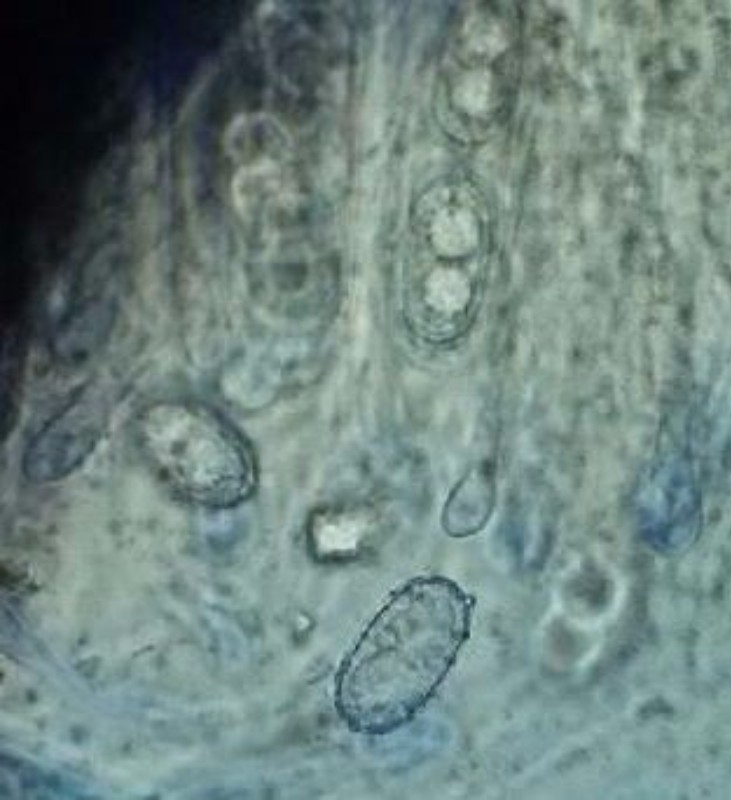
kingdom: Fungi
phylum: Ascomycota
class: Pezizomycetes
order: Pezizales
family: Pyronemataceae
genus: Humaria
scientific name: Humaria hemisphaerica
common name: halvkugleformet børstebæger
